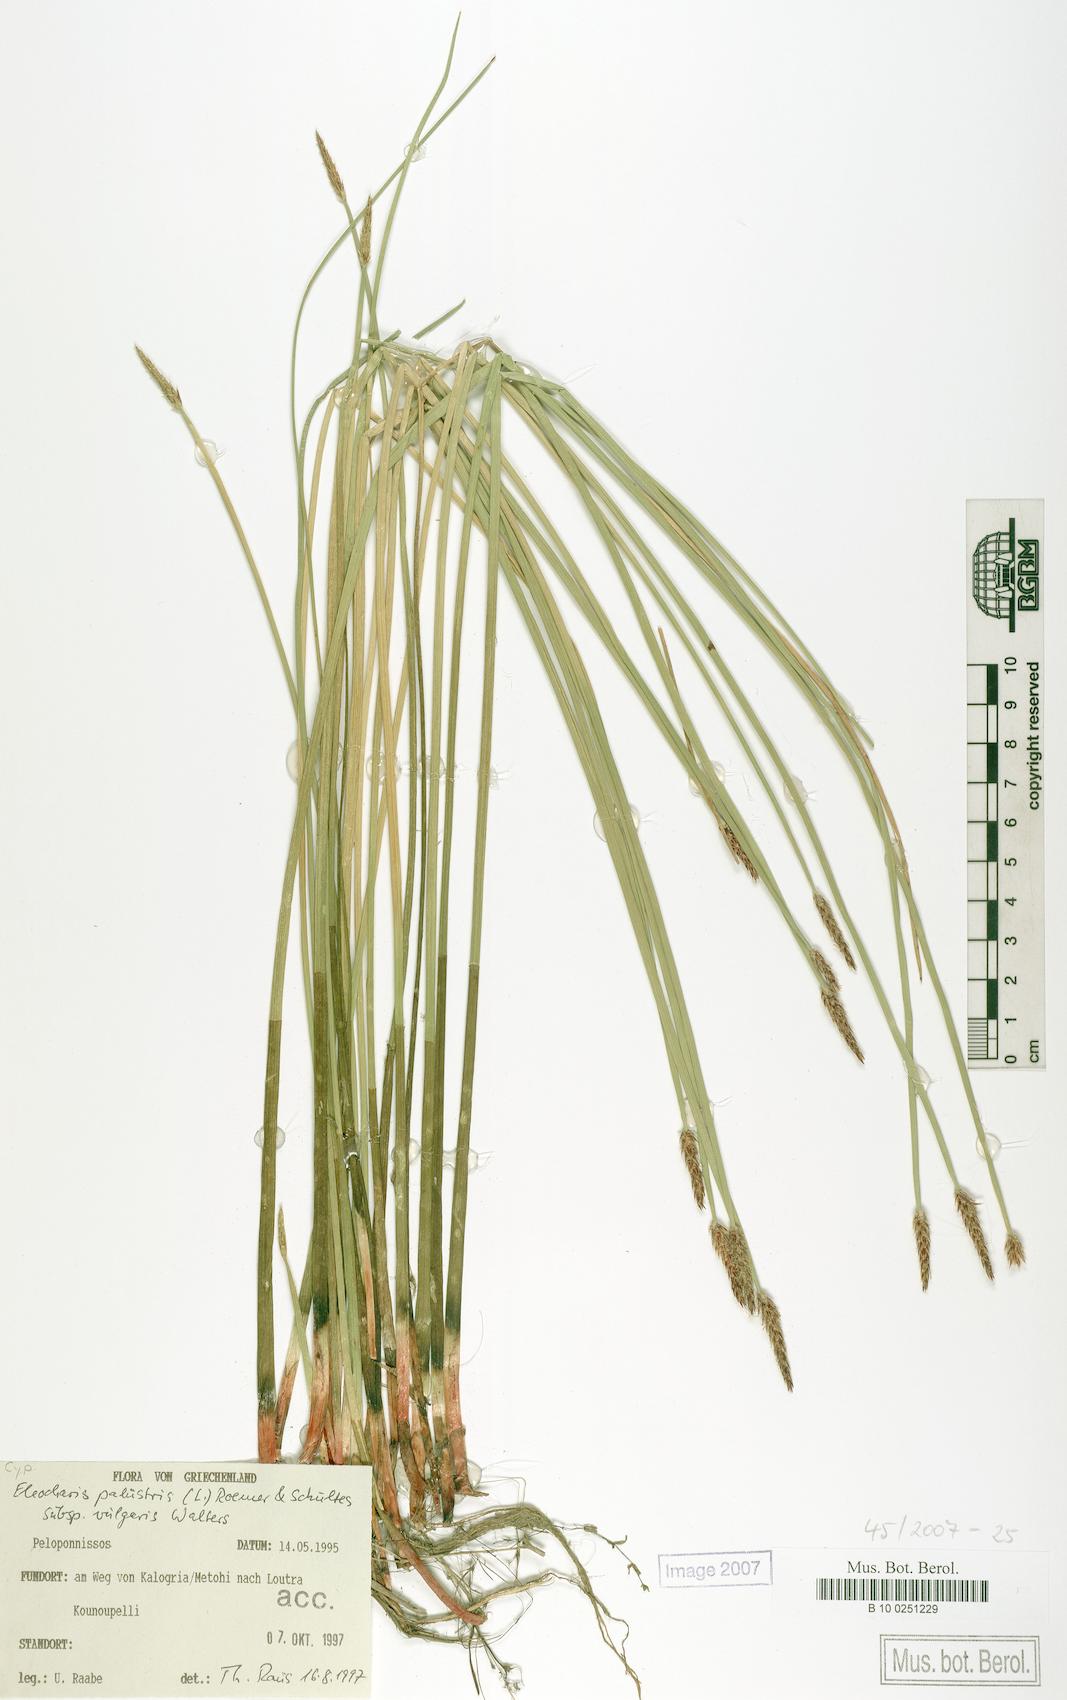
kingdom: Plantae
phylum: Tracheophyta
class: Liliopsida
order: Poales
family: Cyperaceae
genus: Eleocharis
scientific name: Eleocharis palustris
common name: Common spike-rush
